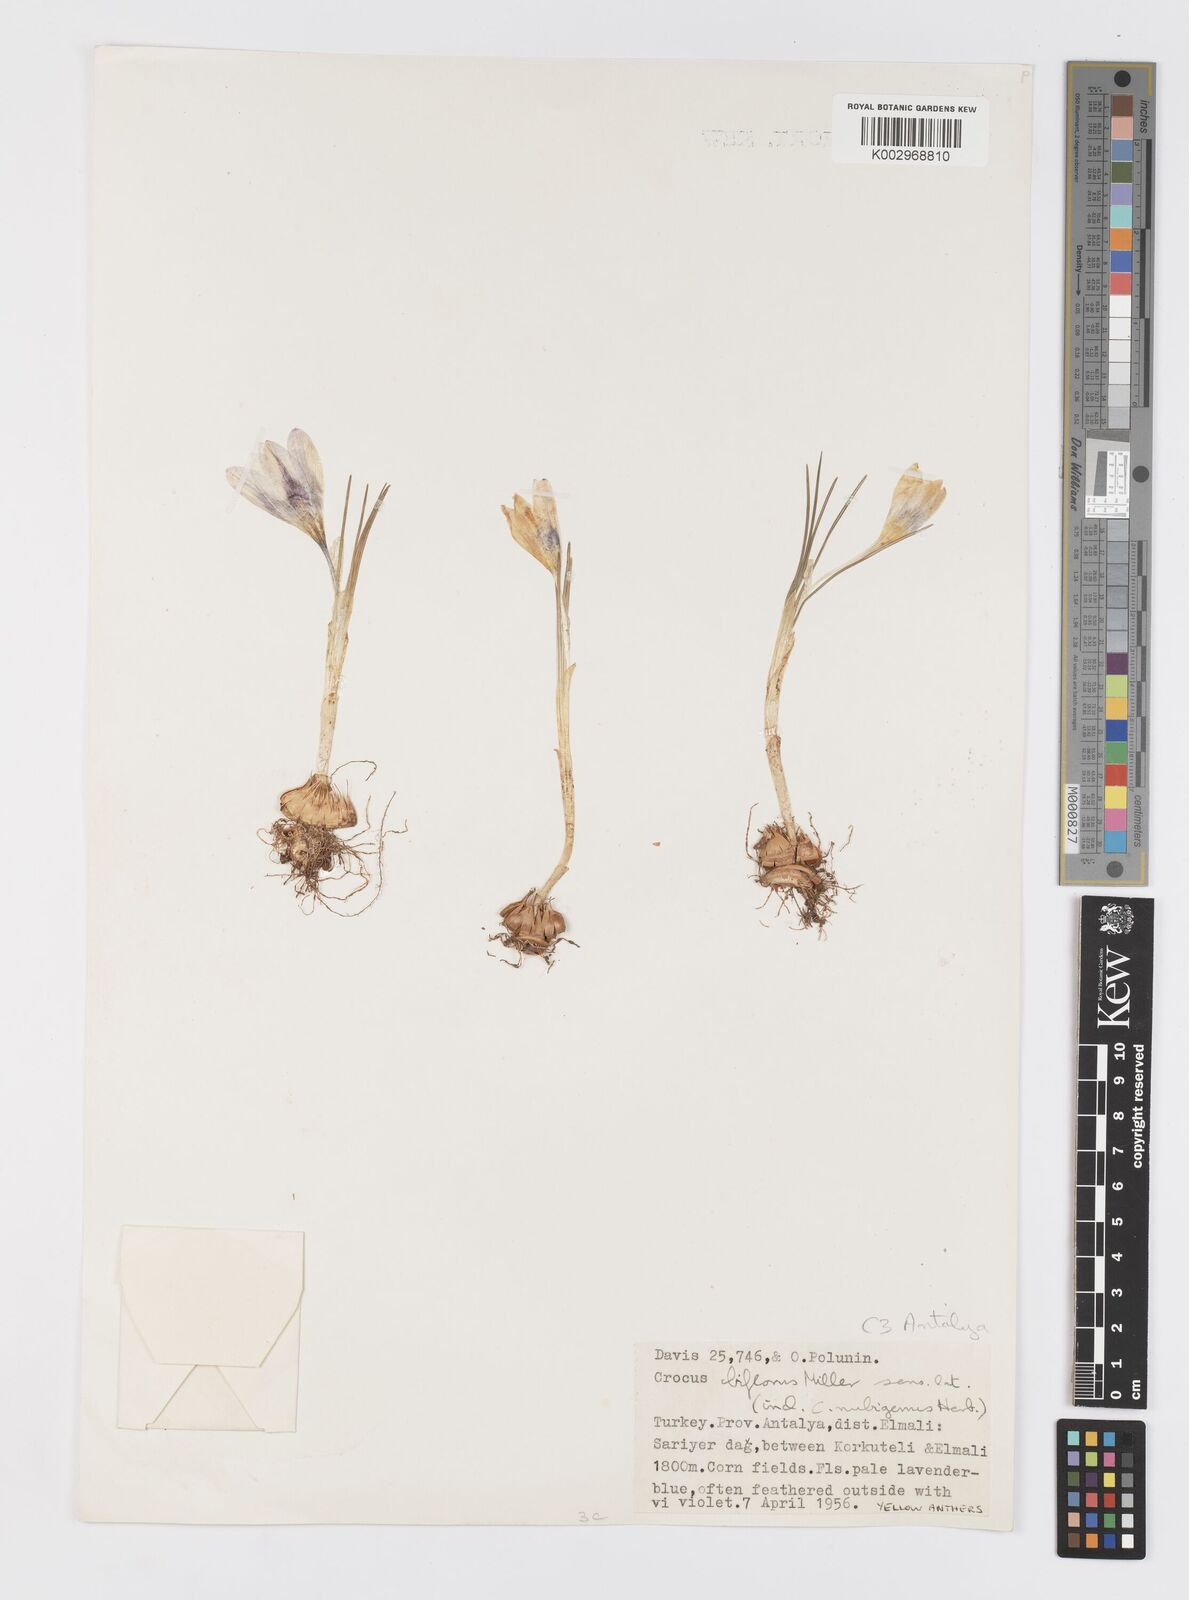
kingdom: Plantae
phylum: Tracheophyta
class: Liliopsida
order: Asparagales
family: Iridaceae
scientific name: Iridaceae
